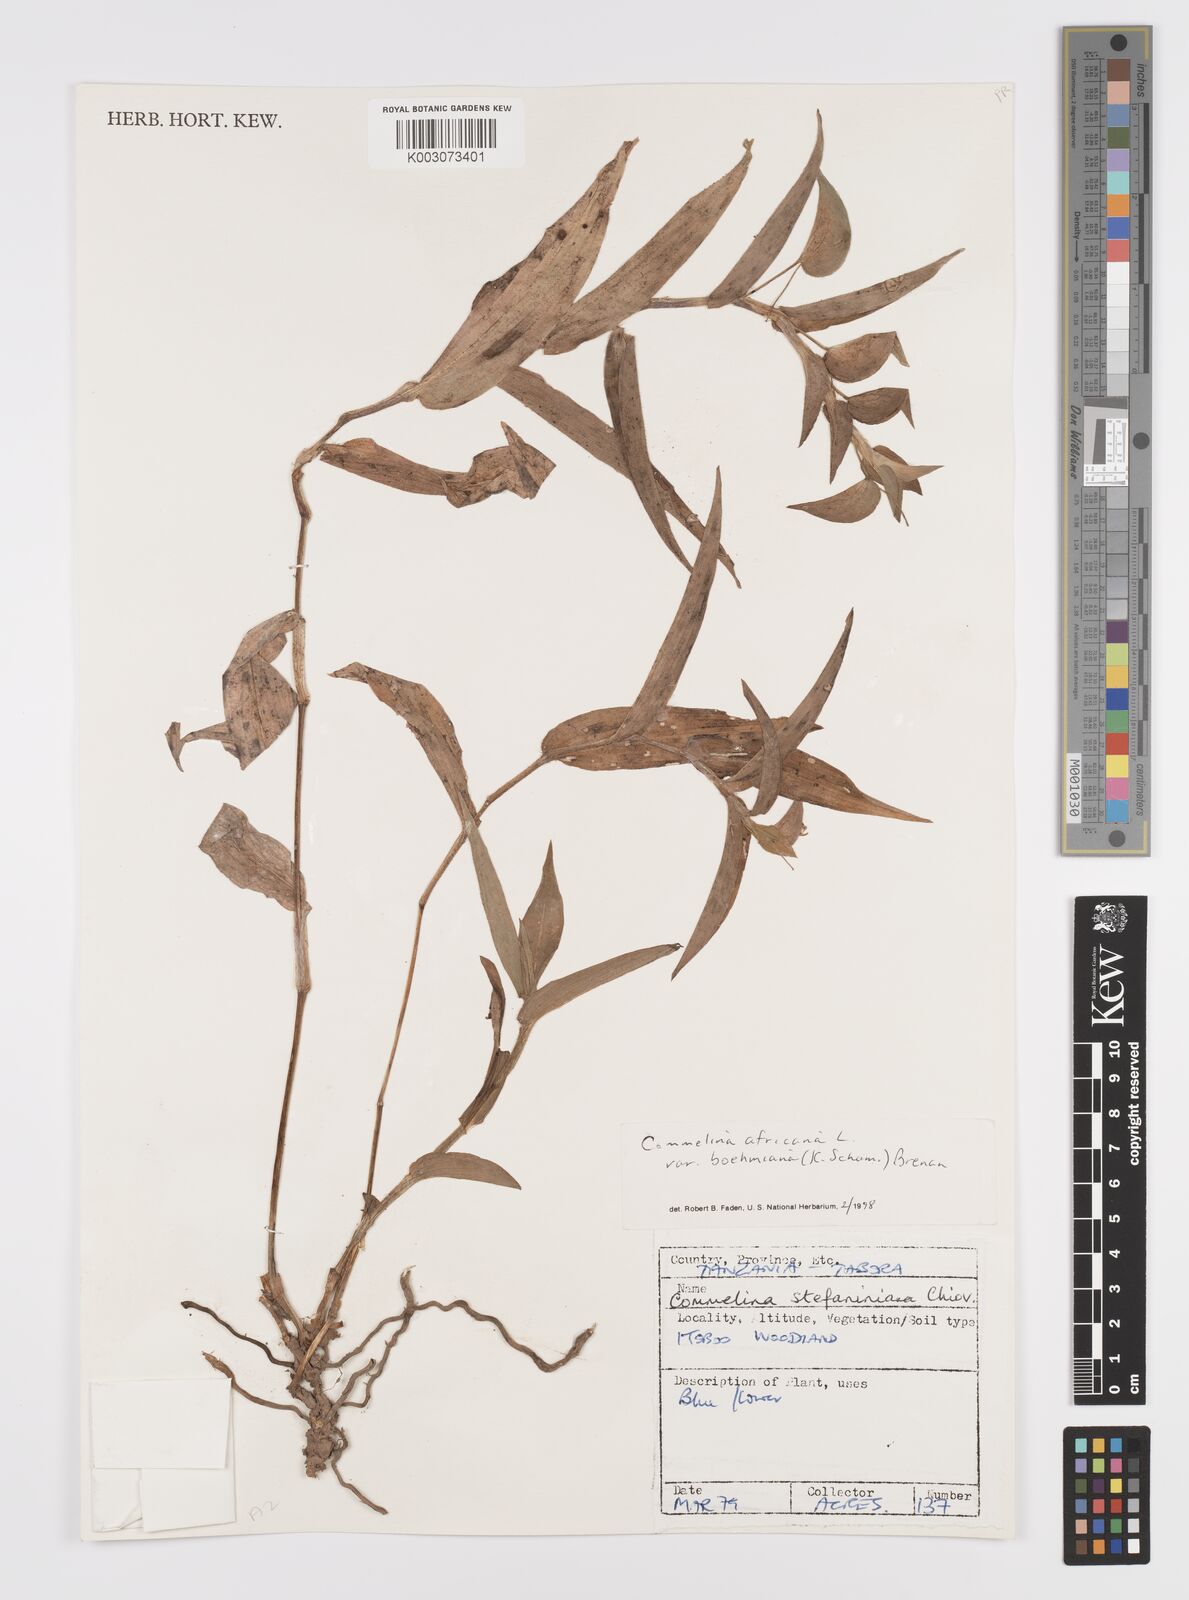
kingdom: Plantae
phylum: Tracheophyta
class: Liliopsida
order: Commelinales
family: Commelinaceae
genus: Commelina
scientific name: Commelina africana
